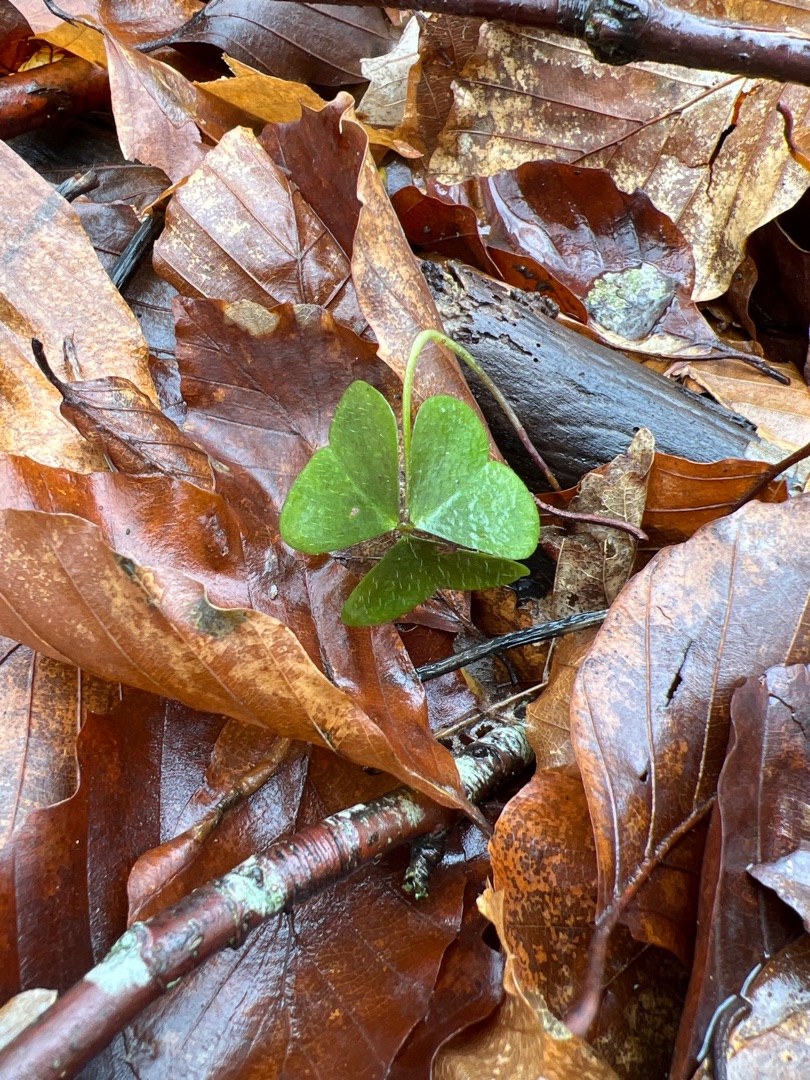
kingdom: Plantae
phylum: Tracheophyta
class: Magnoliopsida
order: Oxalidales
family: Oxalidaceae
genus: Oxalis
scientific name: Oxalis acetosella
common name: Skovsyre
